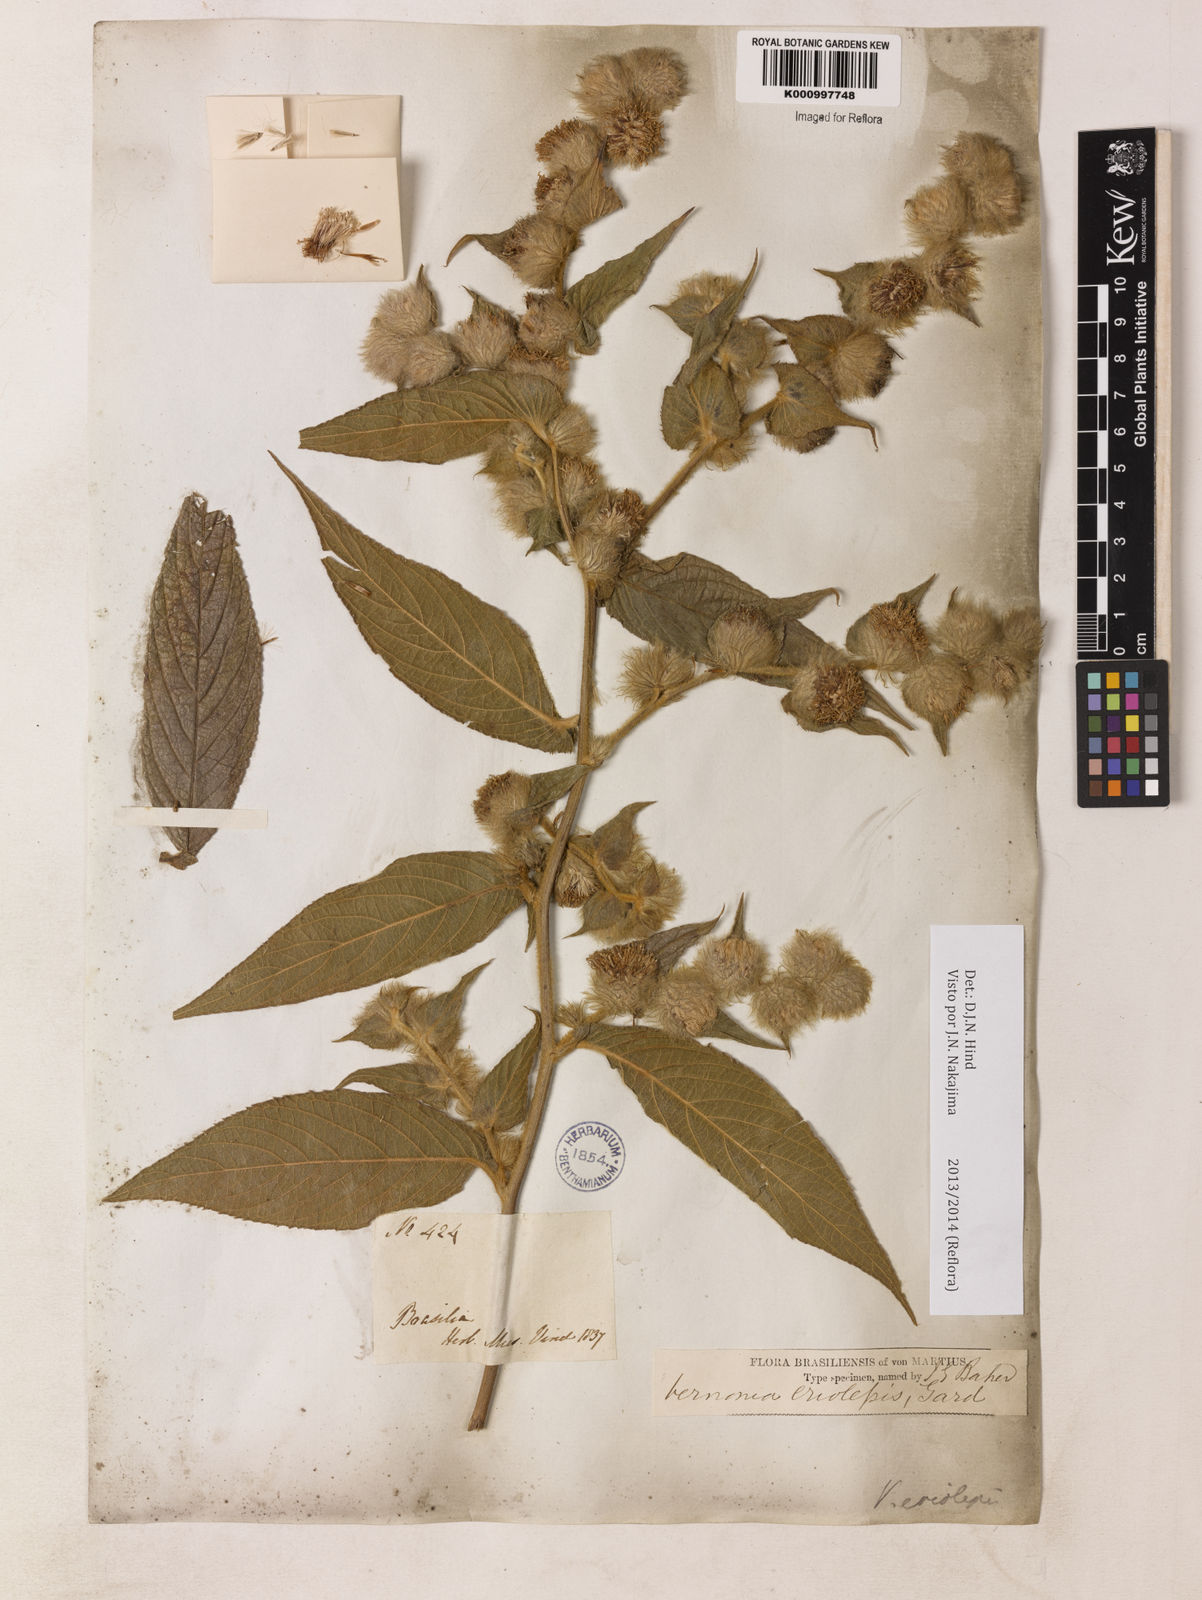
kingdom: Plantae
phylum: Tracheophyta
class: Magnoliopsida
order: Asterales
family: Asteraceae
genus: Lepidaploa
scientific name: Lepidaploa eriolepis
